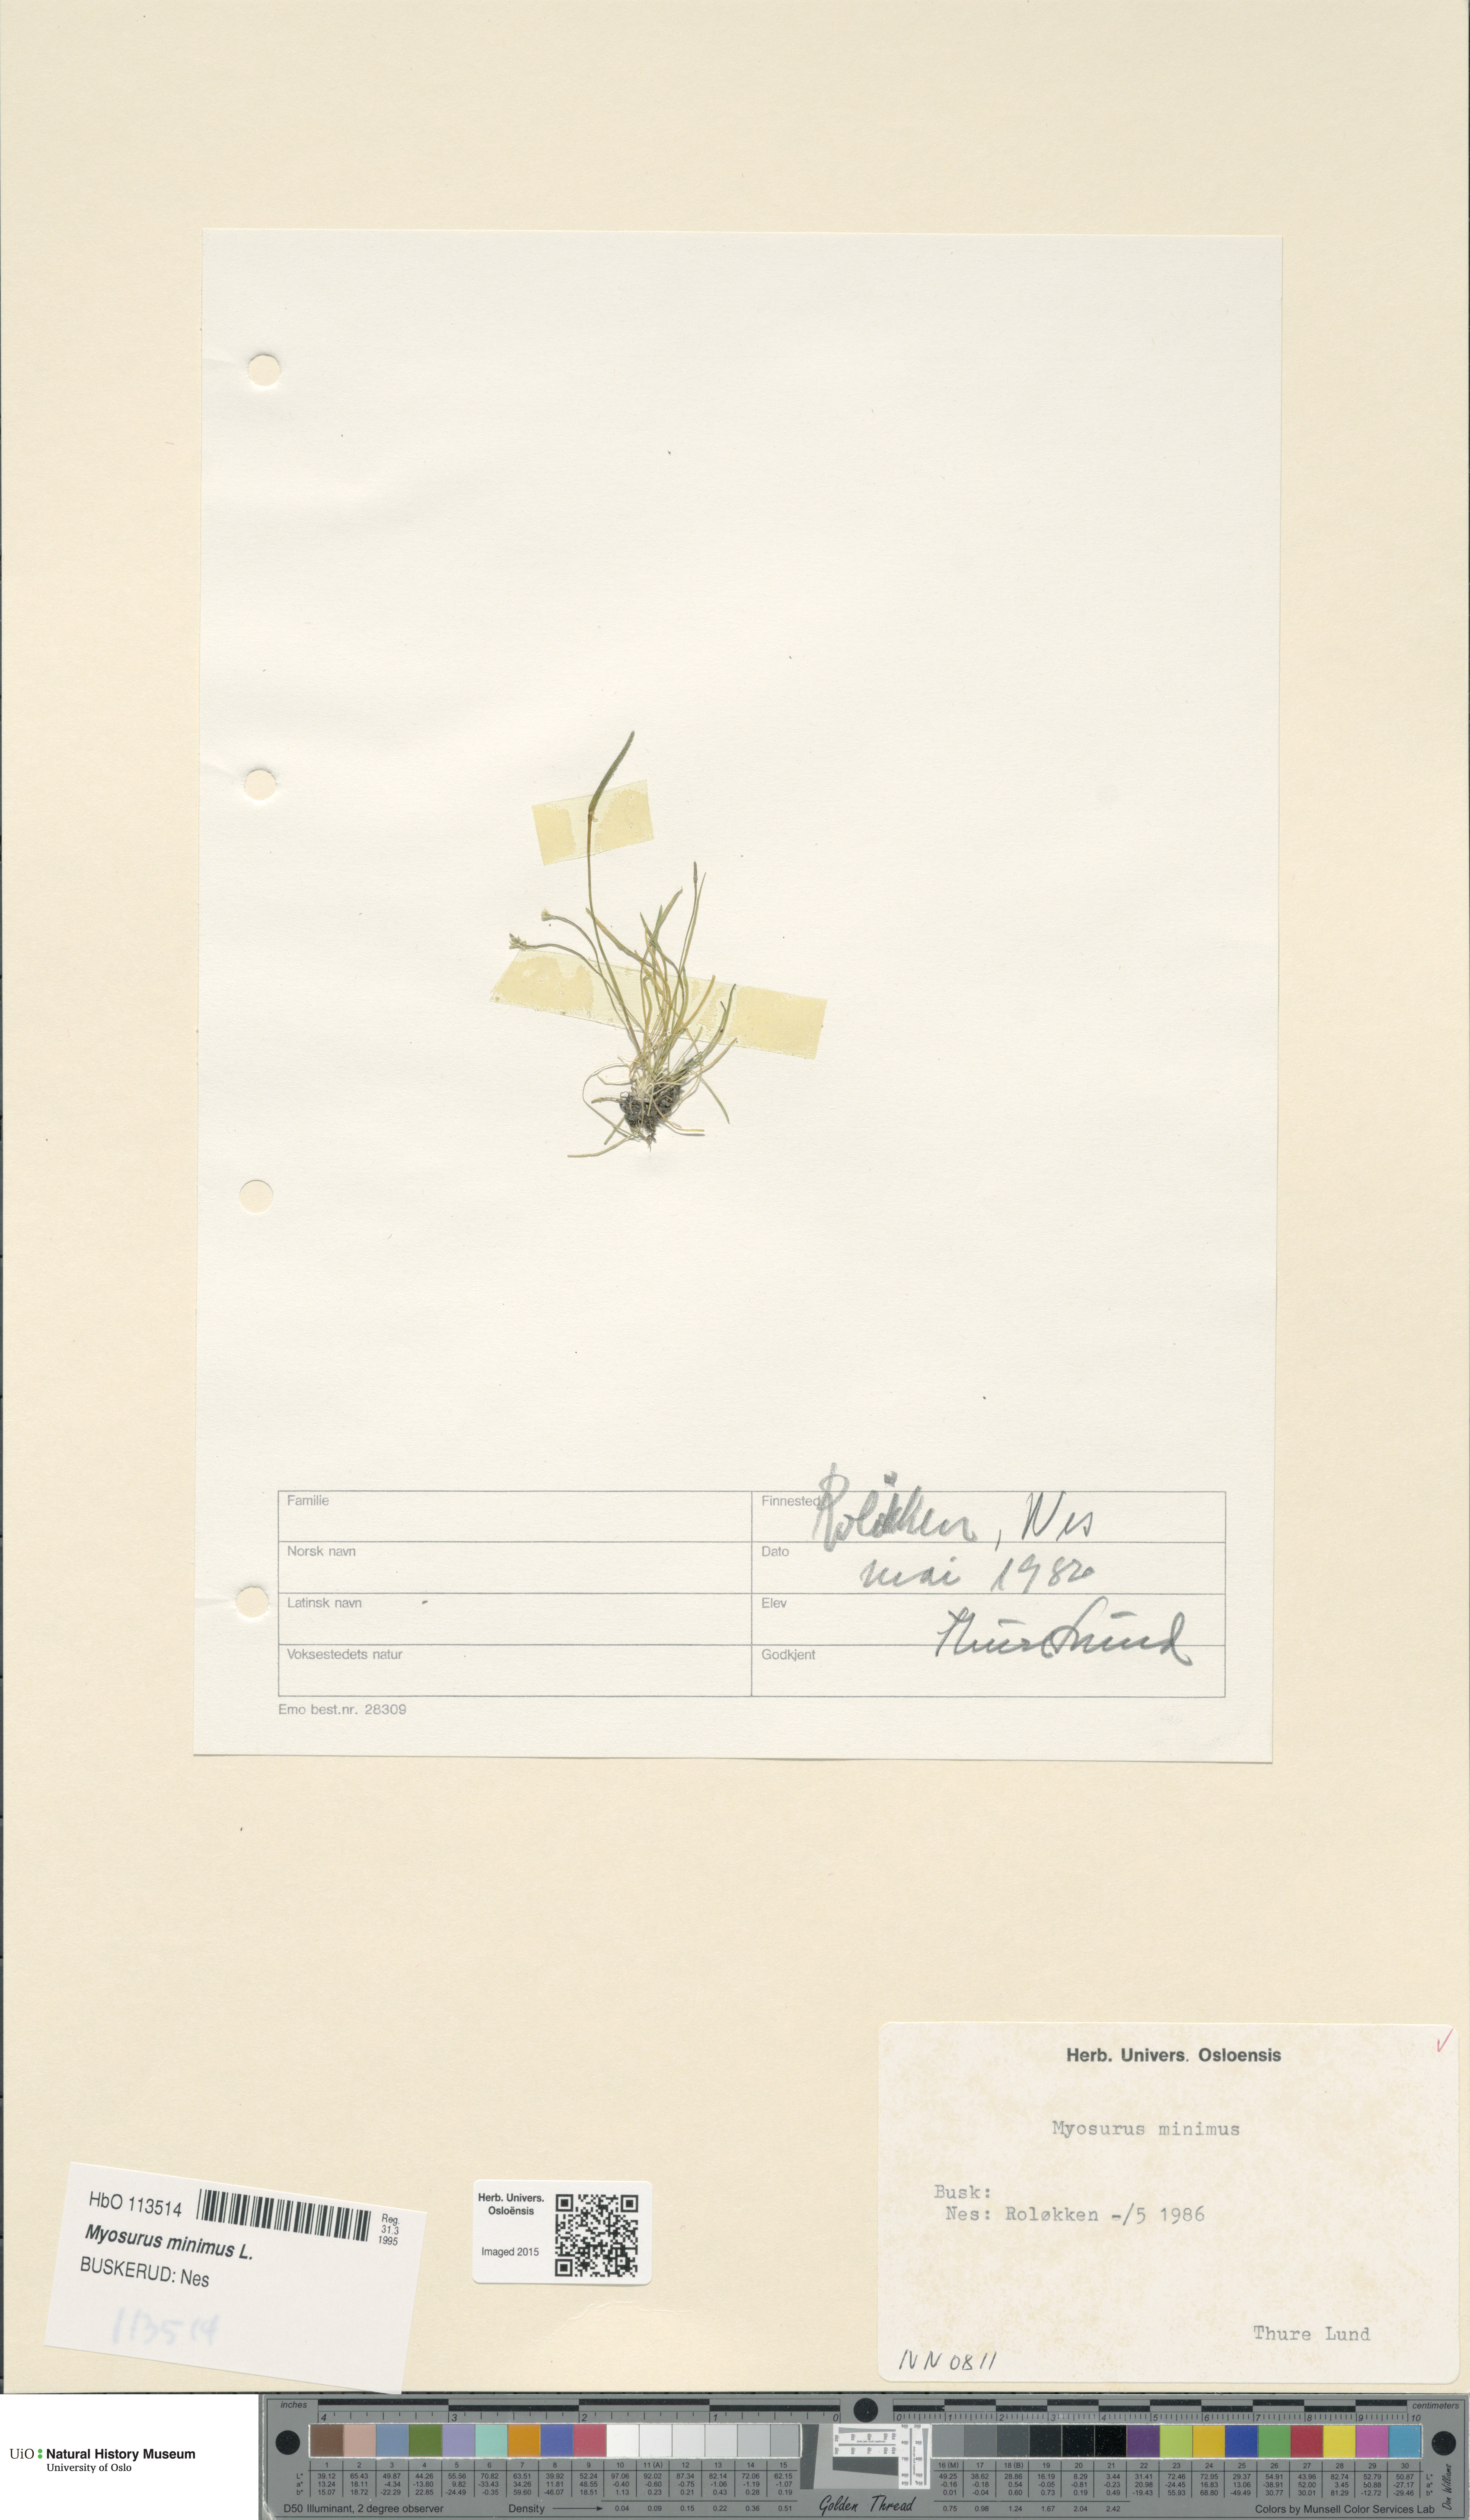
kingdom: Plantae
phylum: Tracheophyta
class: Magnoliopsida
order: Ranunculales
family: Ranunculaceae
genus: Myosurus
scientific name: Myosurus minimus
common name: Mousetail
